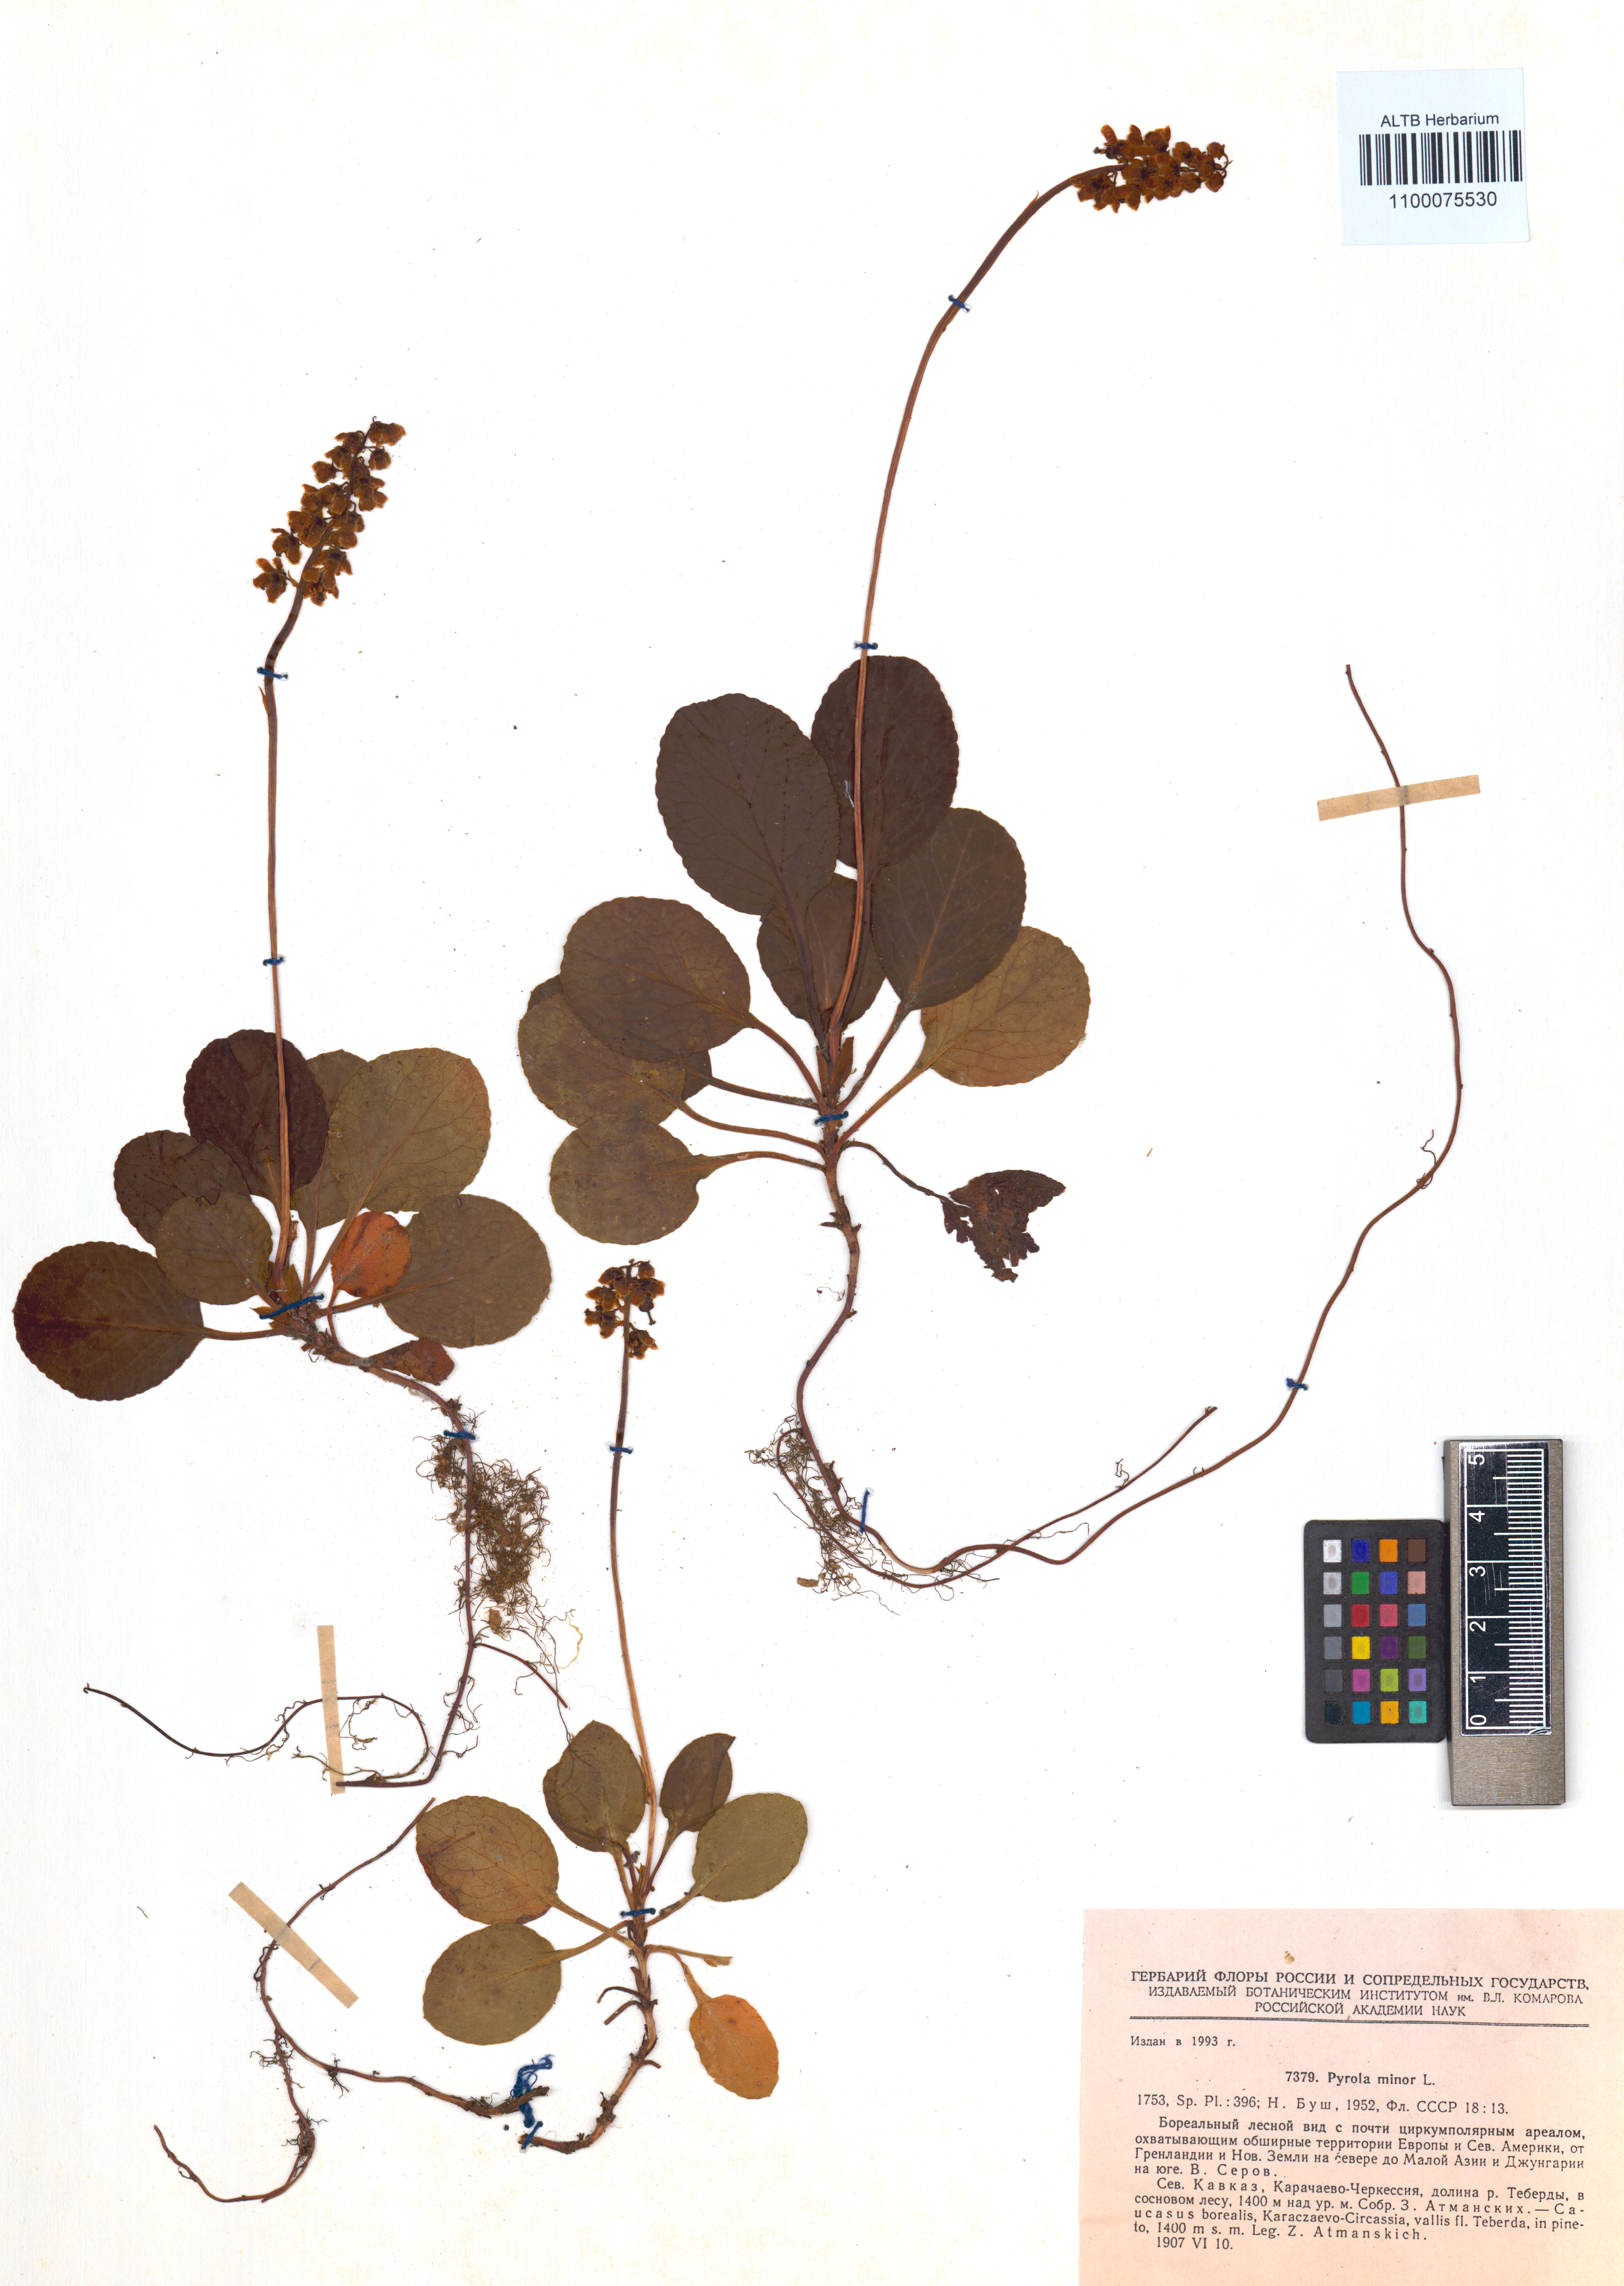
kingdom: Plantae
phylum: Tracheophyta
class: Magnoliopsida
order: Ericales
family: Ericaceae
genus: Pyrola
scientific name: Pyrola minor
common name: Common wintergreen
